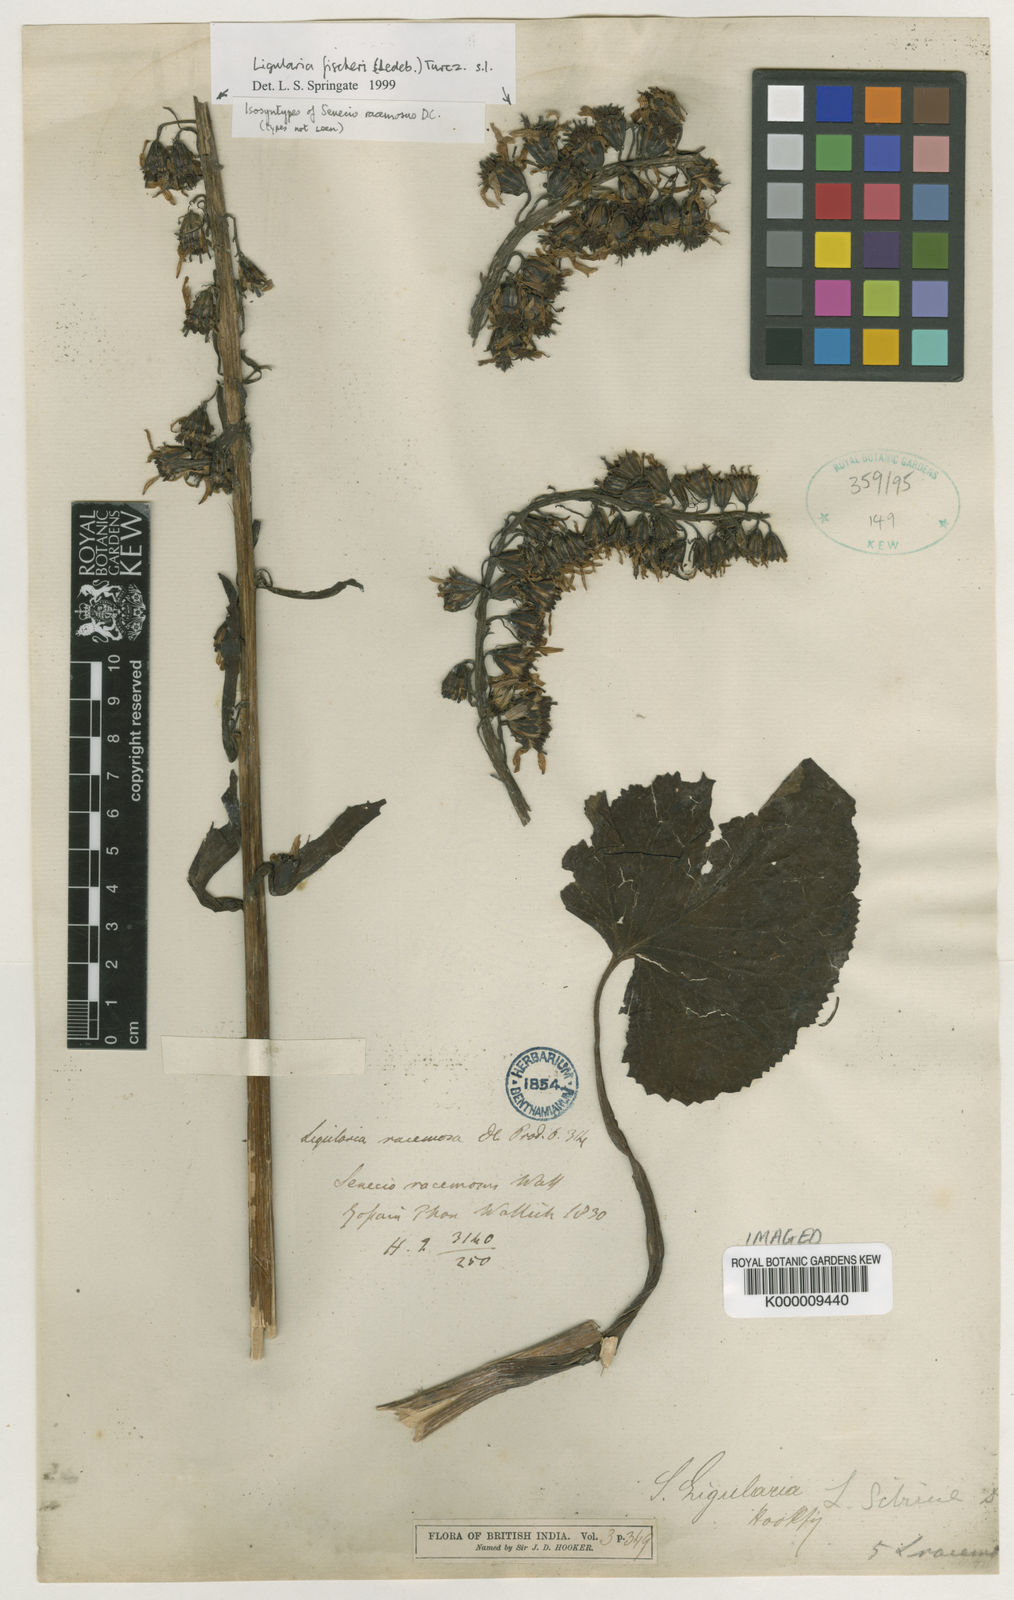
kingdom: Plantae
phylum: Tracheophyta
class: Magnoliopsida
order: Asterales
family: Asteraceae
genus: Ligularia
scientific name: Ligularia fischeri
